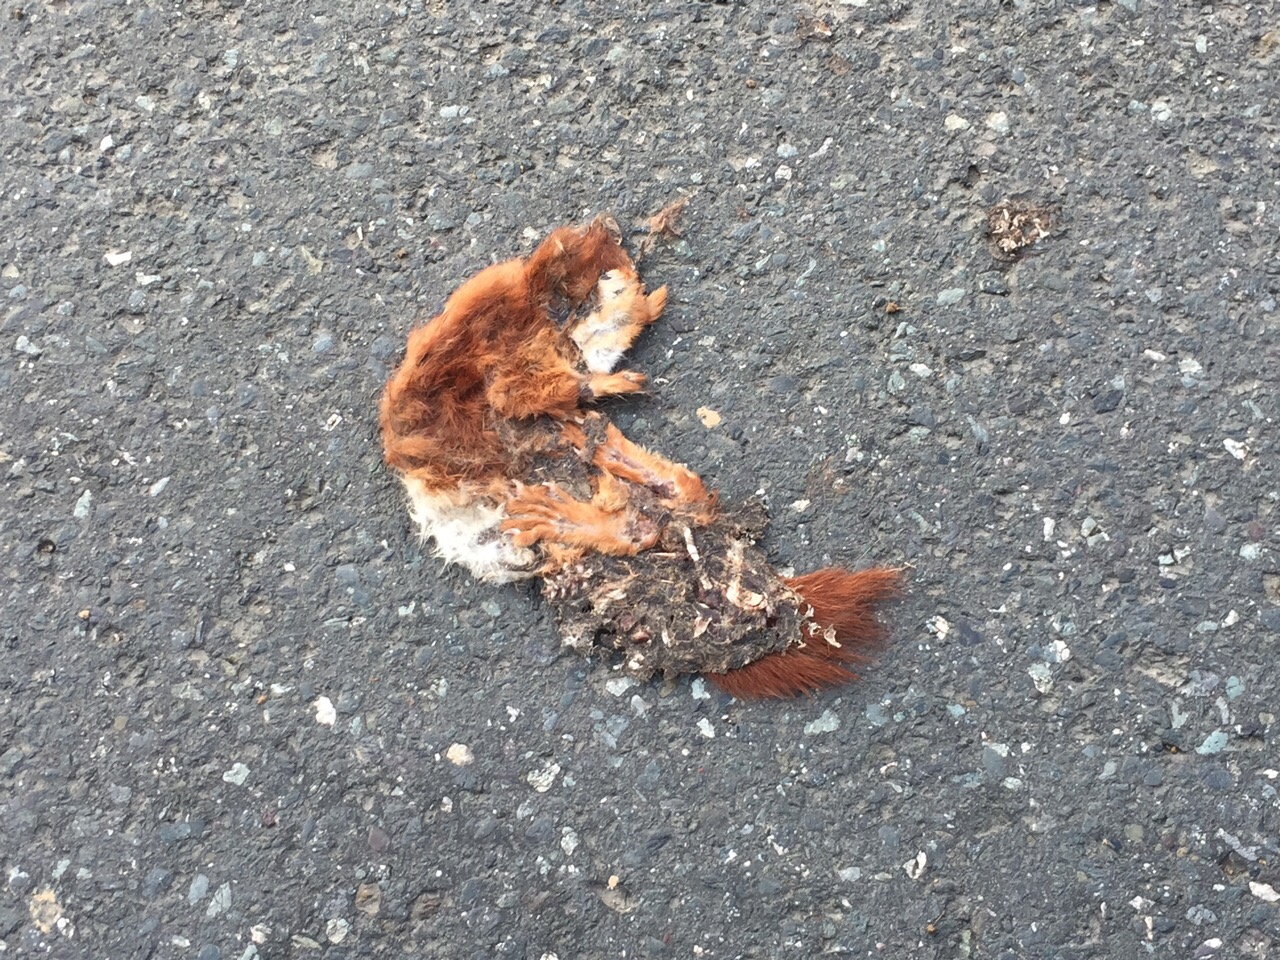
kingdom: Animalia
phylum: Chordata
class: Mammalia
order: Rodentia
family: Sciuridae
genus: Sciurus
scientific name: Sciurus vulgaris
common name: Eurasian red squirrel
